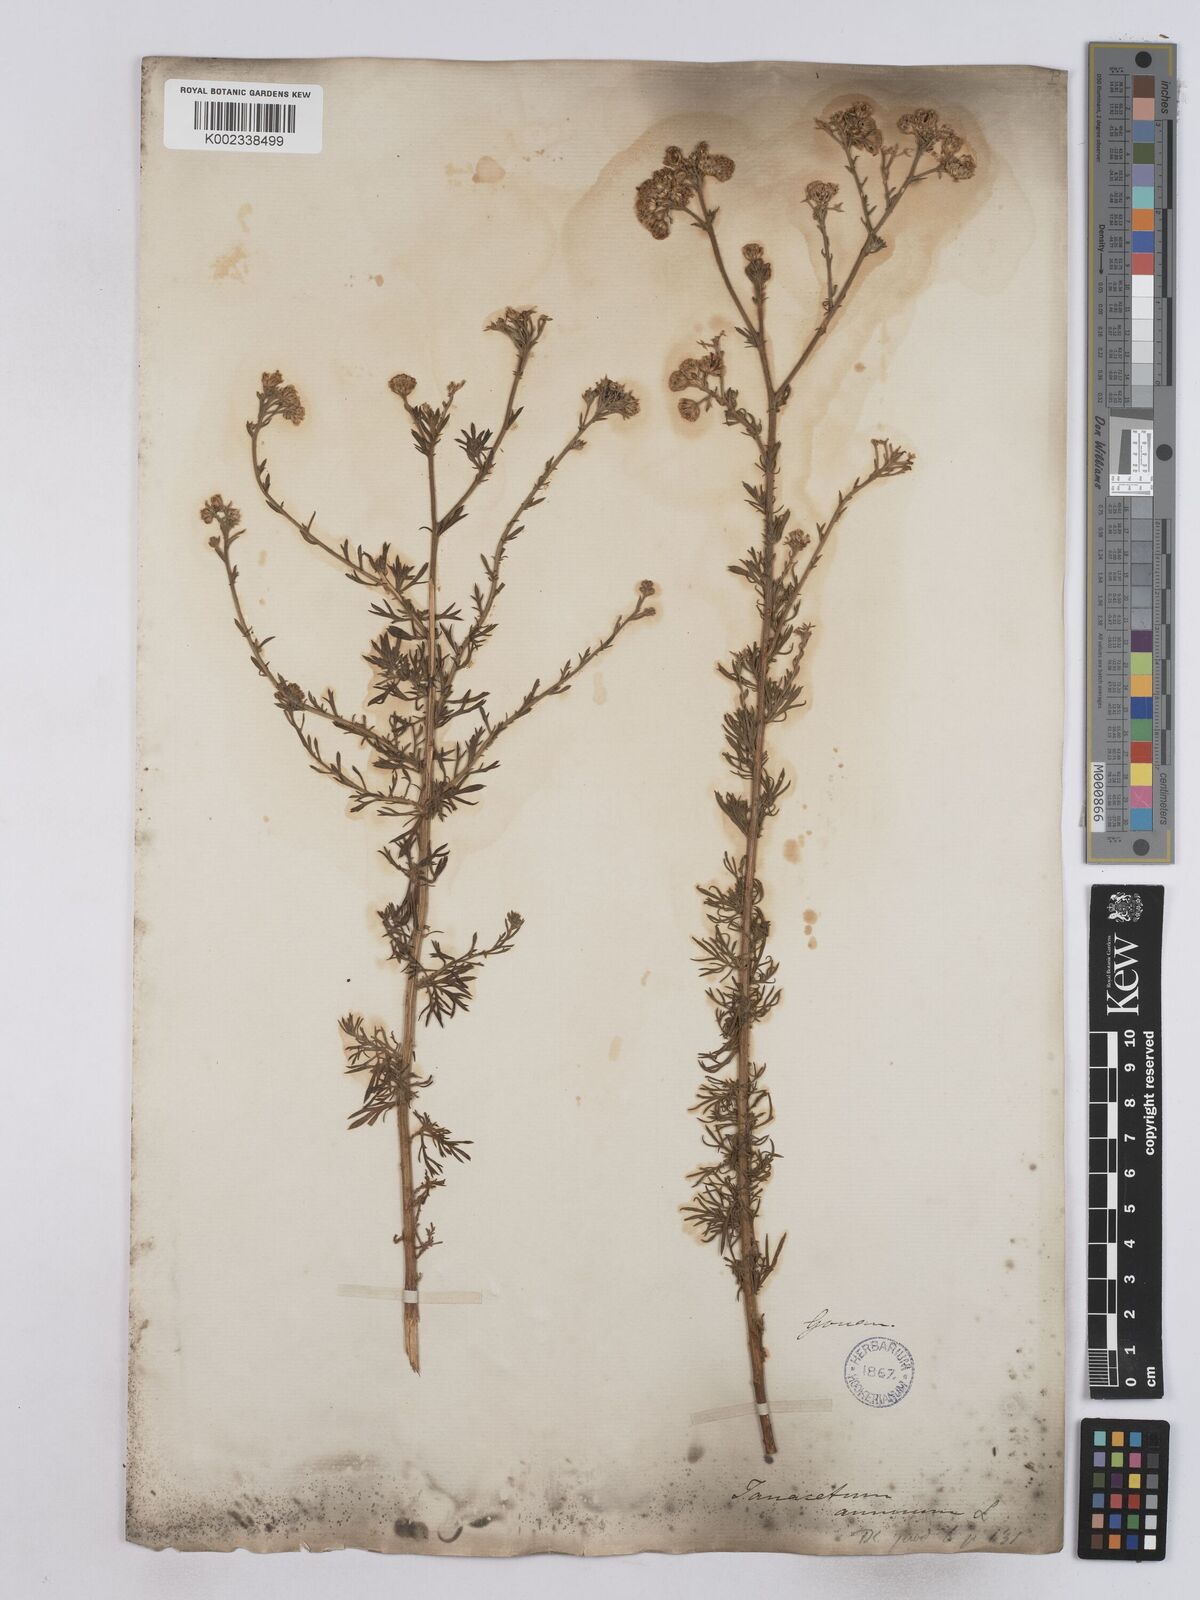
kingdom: Plantae
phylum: Tracheophyta
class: Magnoliopsida
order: Asterales
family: Asteraceae
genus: Vogtia
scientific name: Vogtia annua
